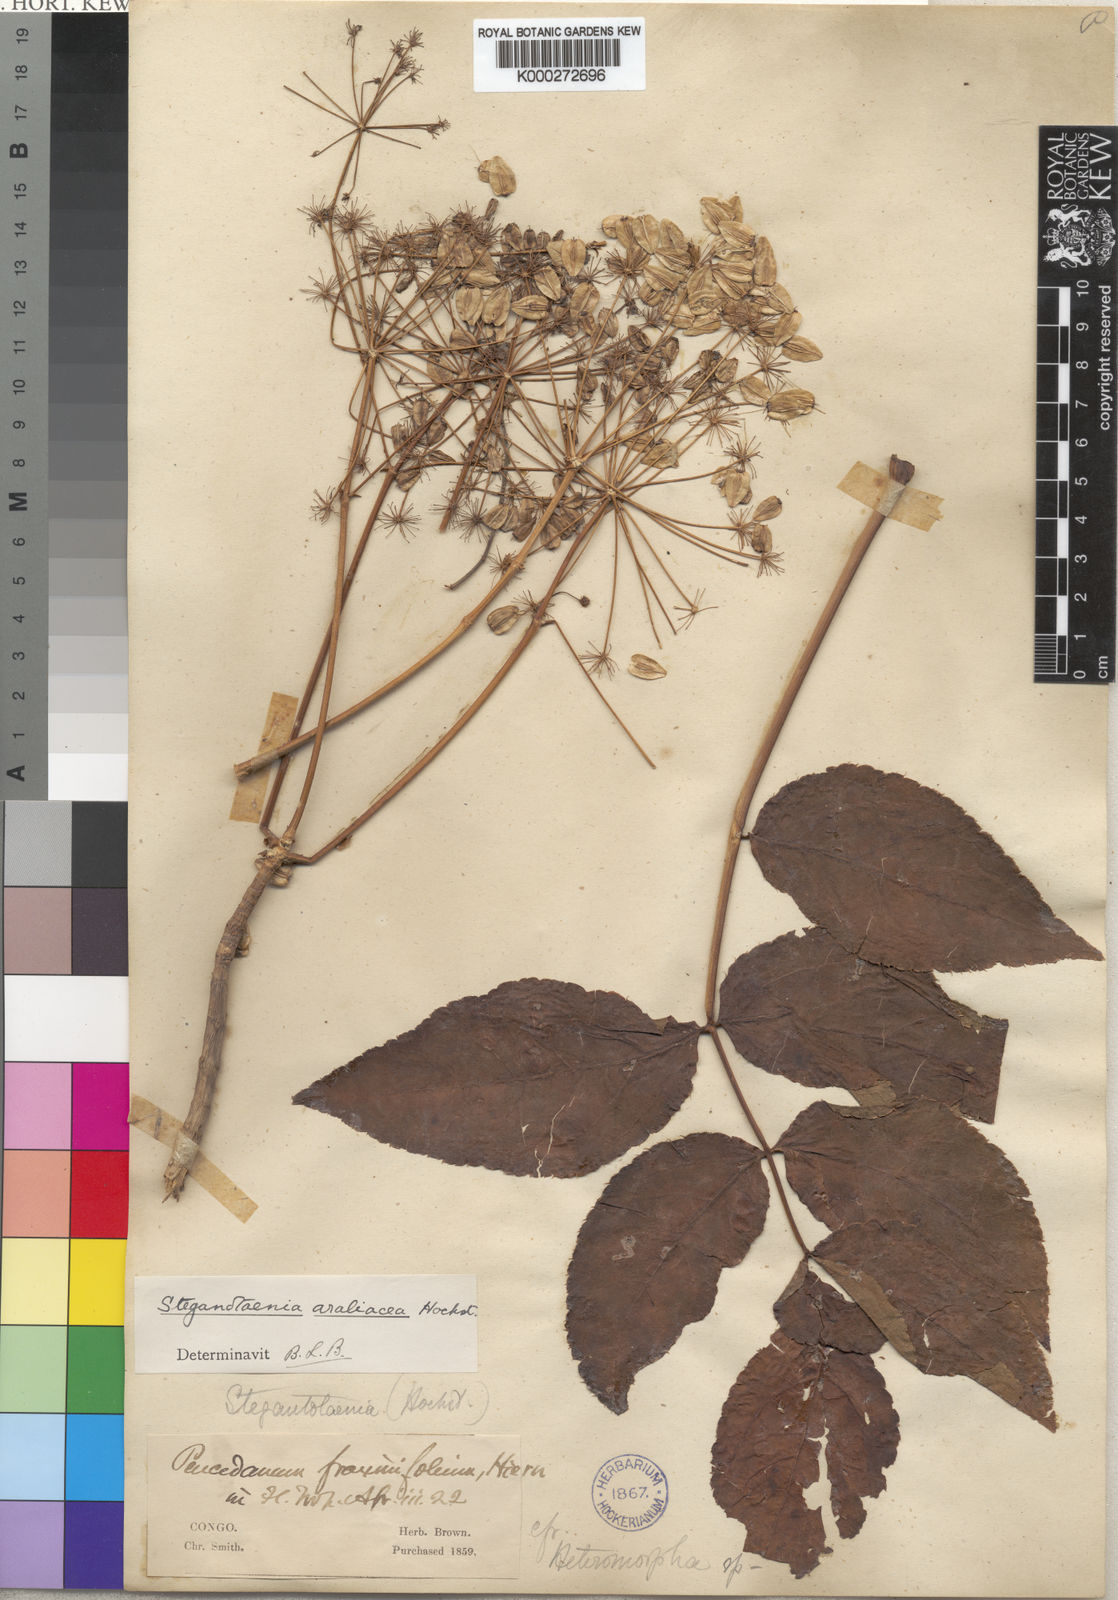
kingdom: Plantae
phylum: Tracheophyta
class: Magnoliopsida
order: Apiales
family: Apiaceae
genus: Steganotaenia
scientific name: Steganotaenia araliacea
